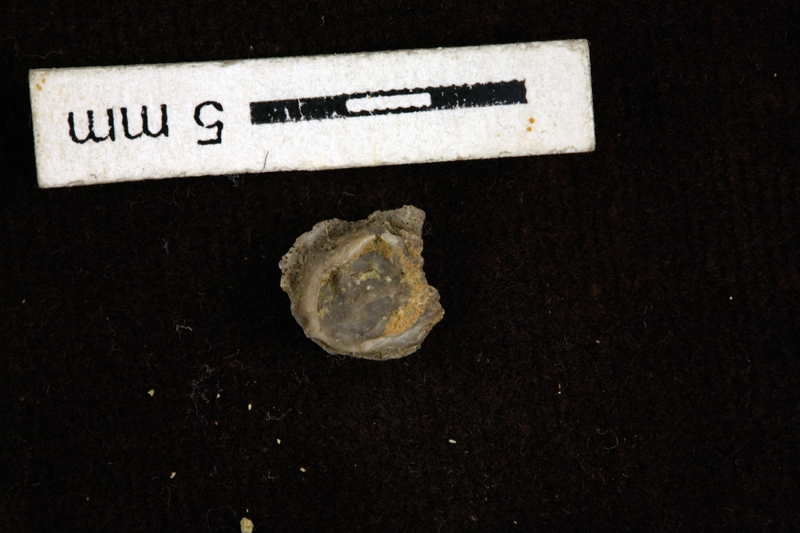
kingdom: Animalia
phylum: Echinodermata
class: Crinoidea
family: Cyathocystidae
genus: Cyathocystis
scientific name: Cyathocystis
